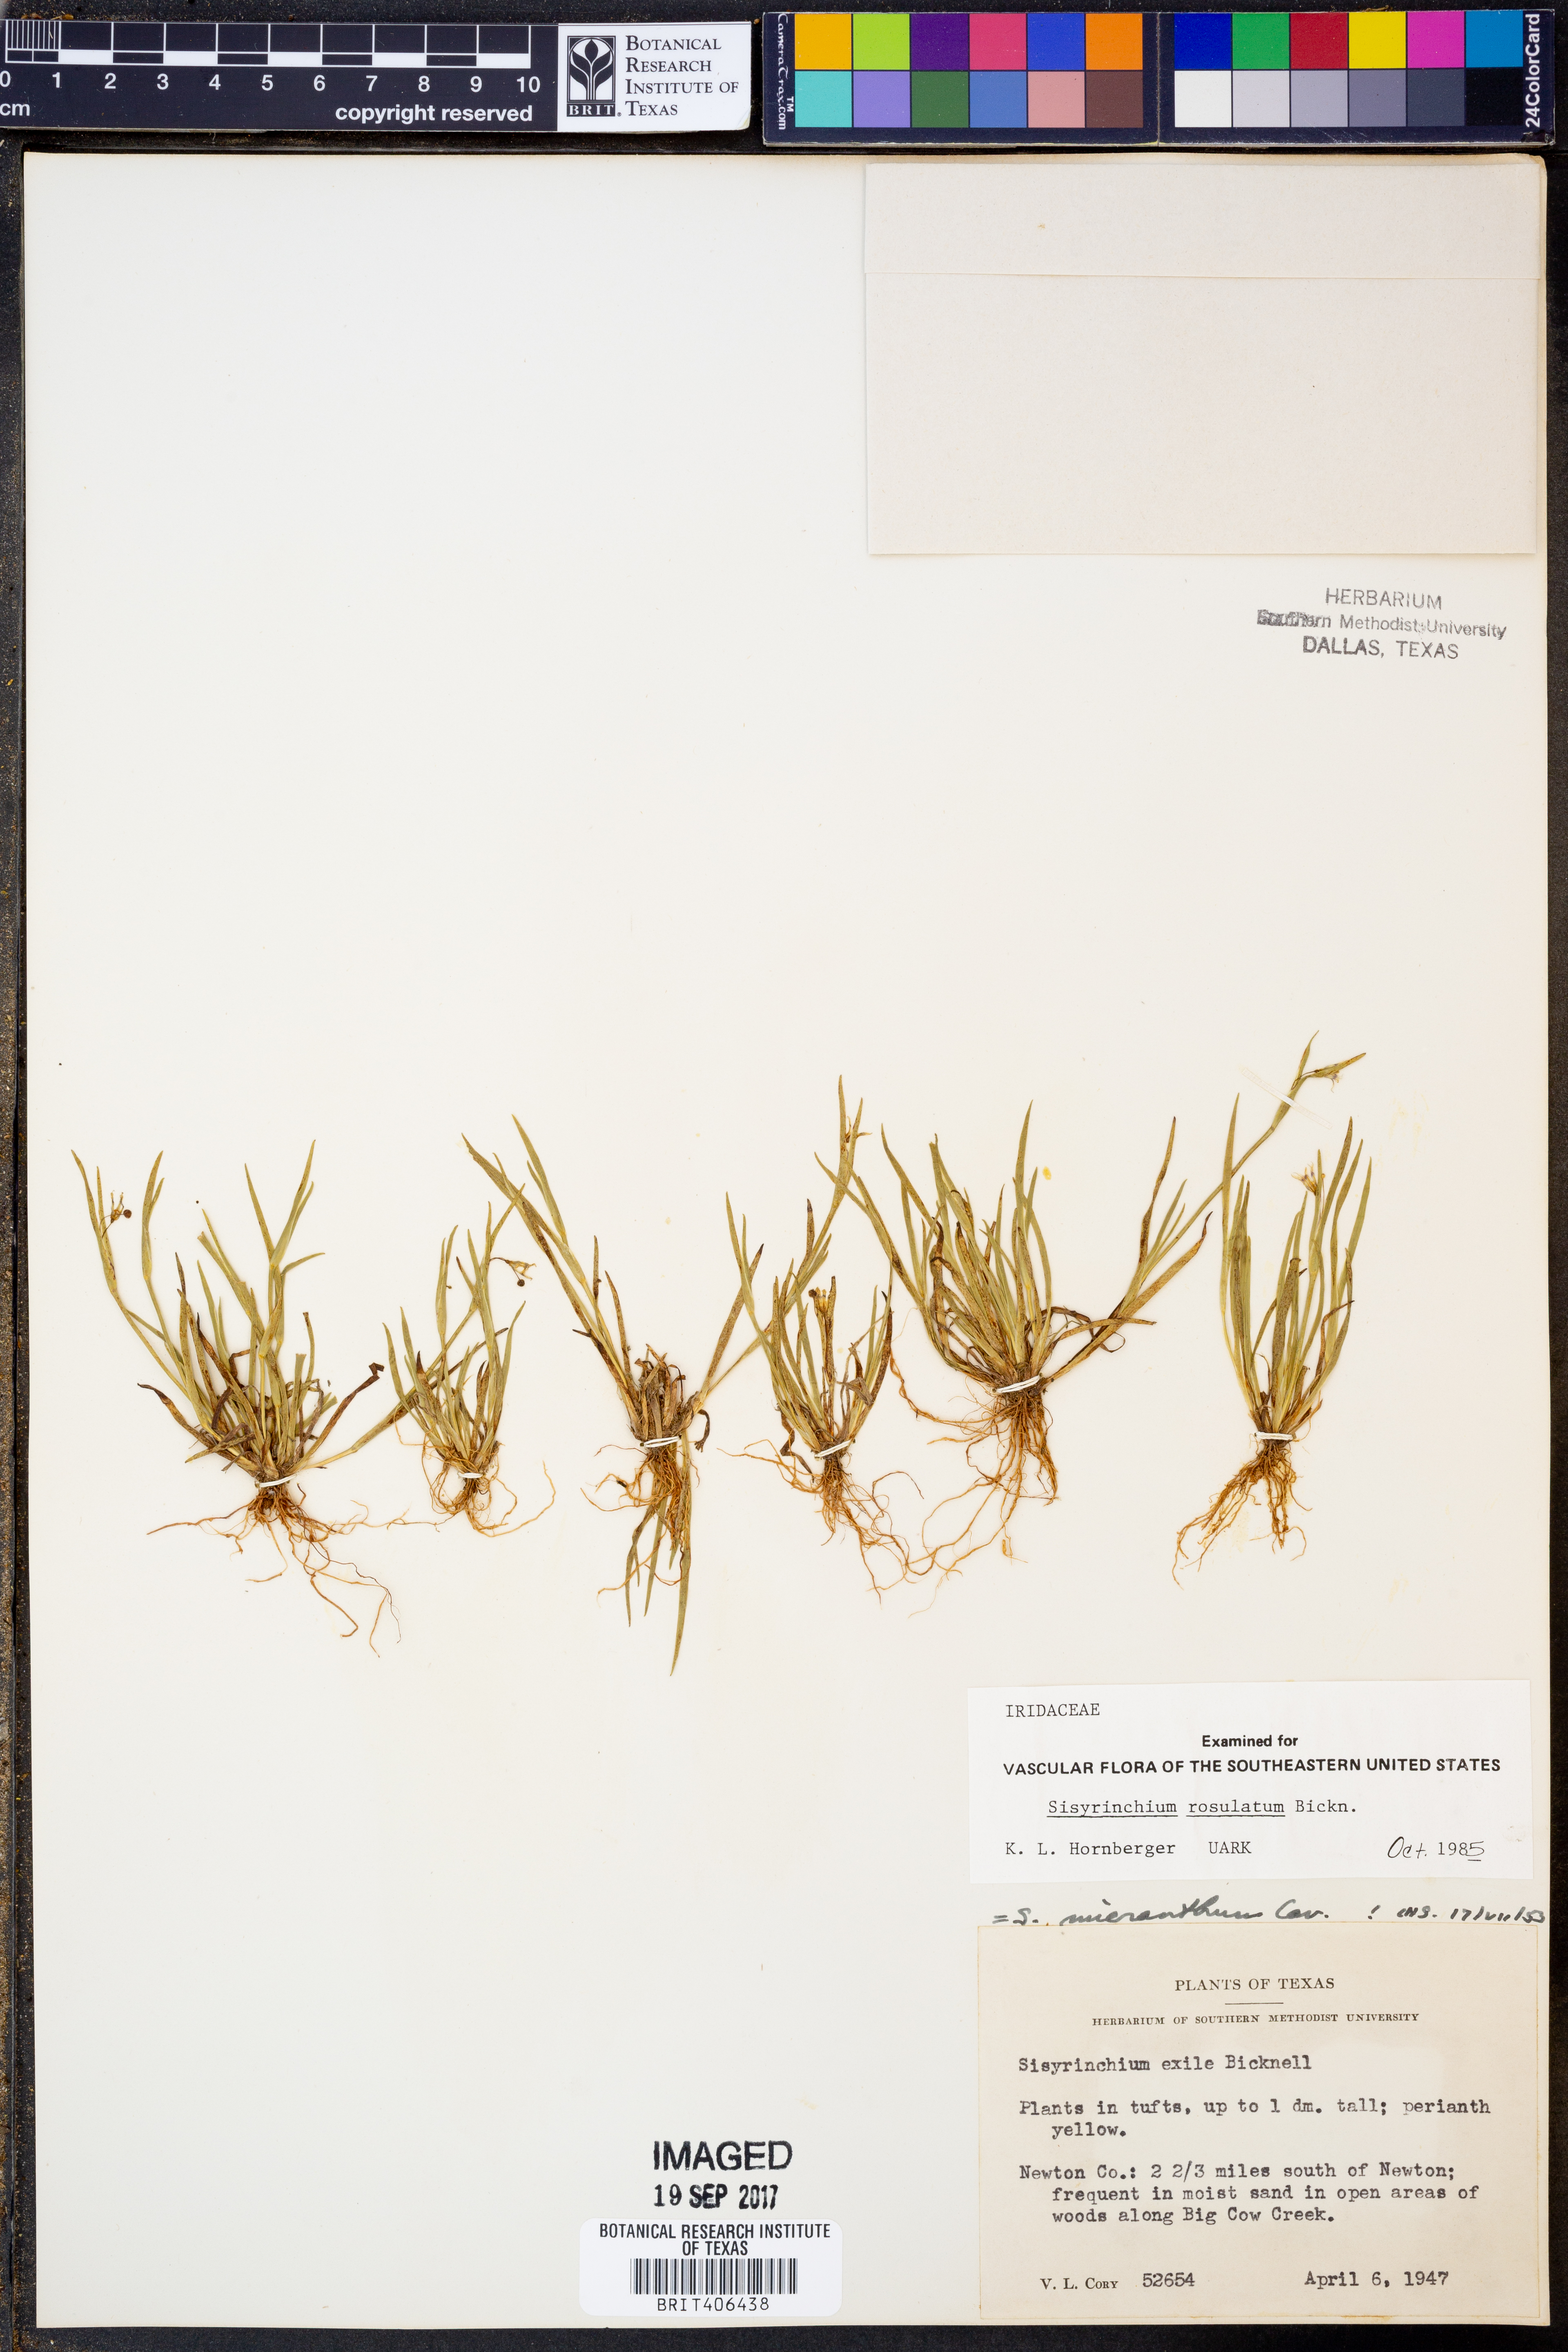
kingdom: Plantae
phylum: Tracheophyta
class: Liliopsida
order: Asparagales
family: Iridaceae
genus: Sisyrinchium
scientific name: Sisyrinchium rosulatum
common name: Annual blue-eyed grass
